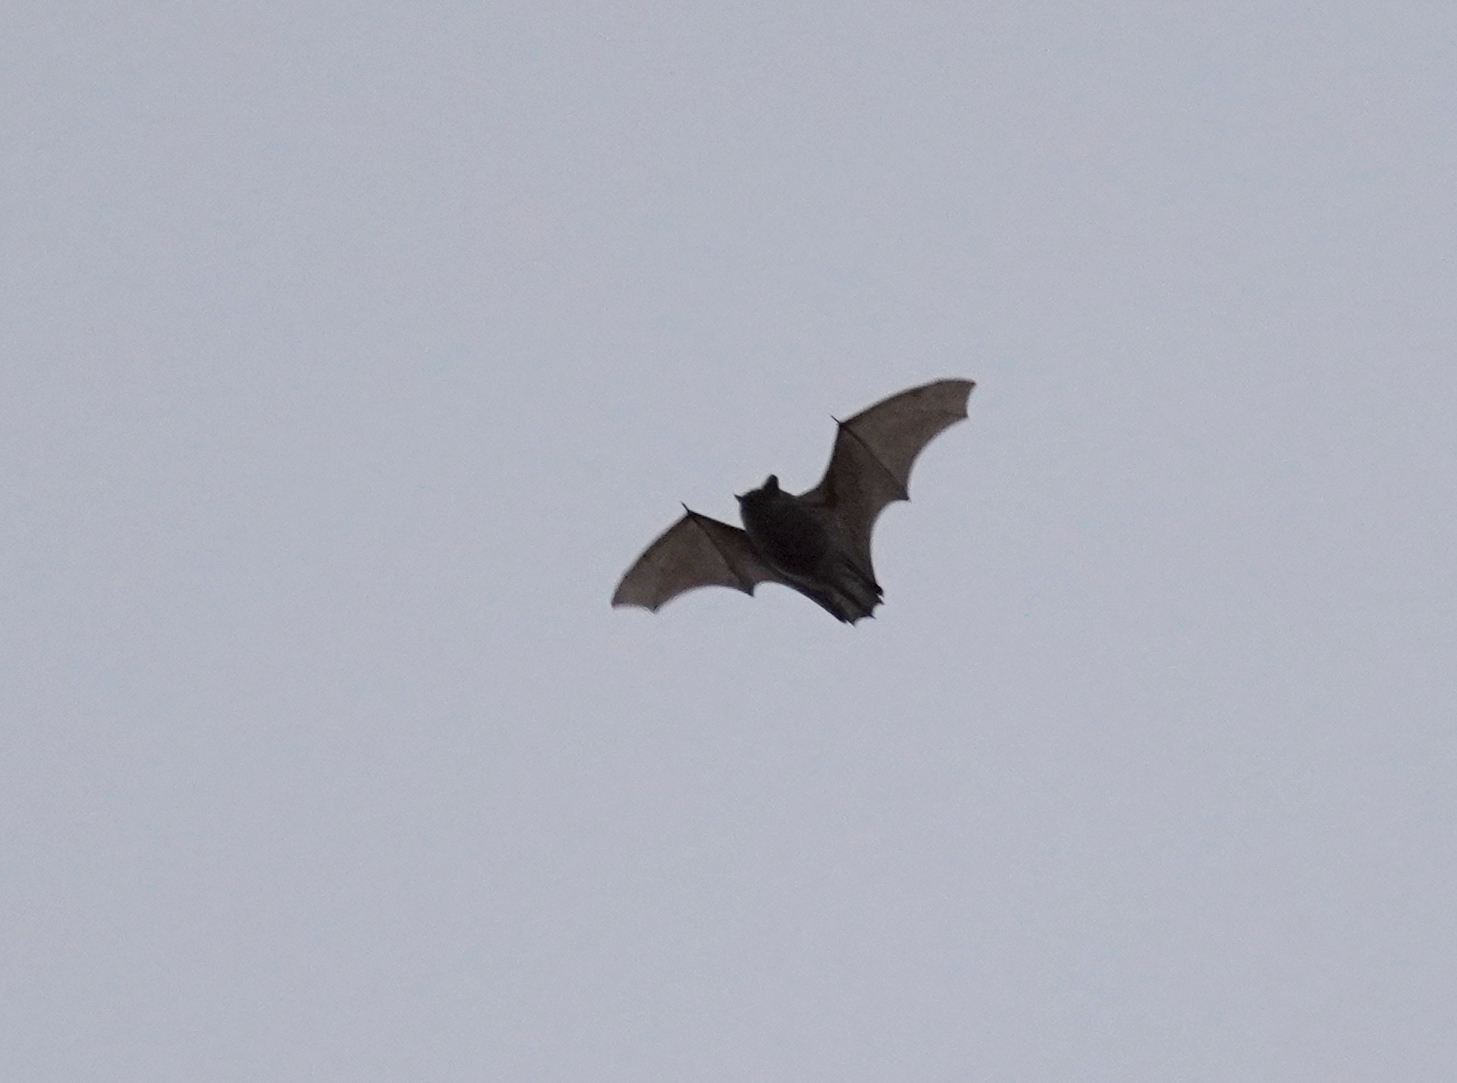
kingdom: Animalia
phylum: Chordata
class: Mammalia
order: Chiroptera
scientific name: Chiroptera
